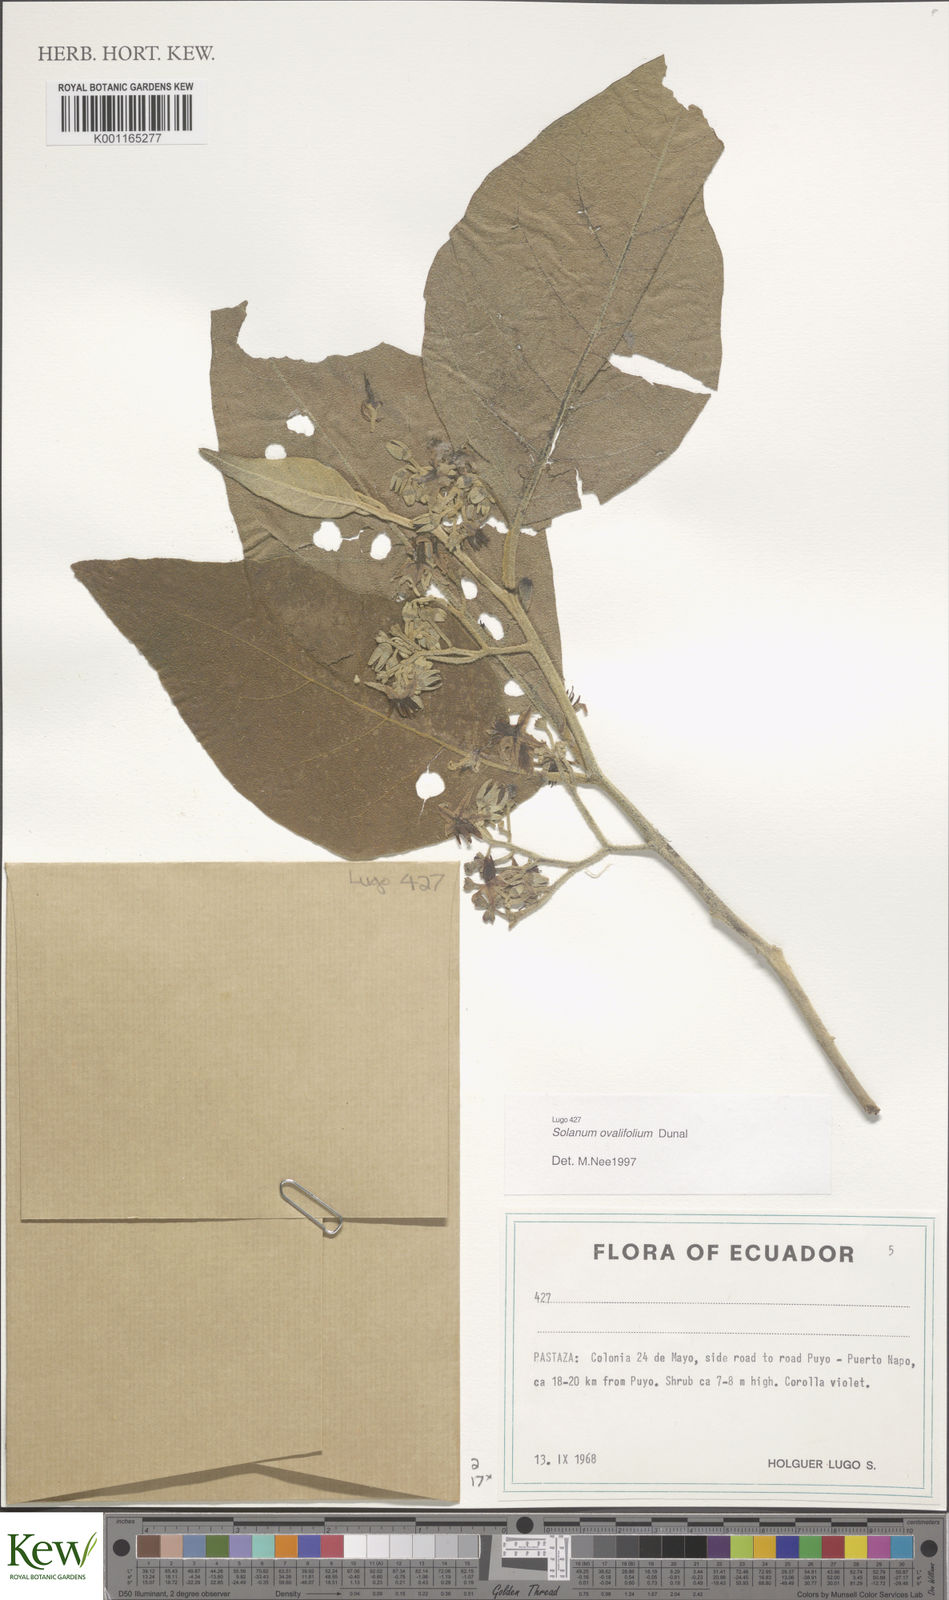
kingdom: Plantae
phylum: Tracheophyta
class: Magnoliopsida
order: Solanales
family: Solanaceae
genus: Solanum
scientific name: Solanum ovalifolium
